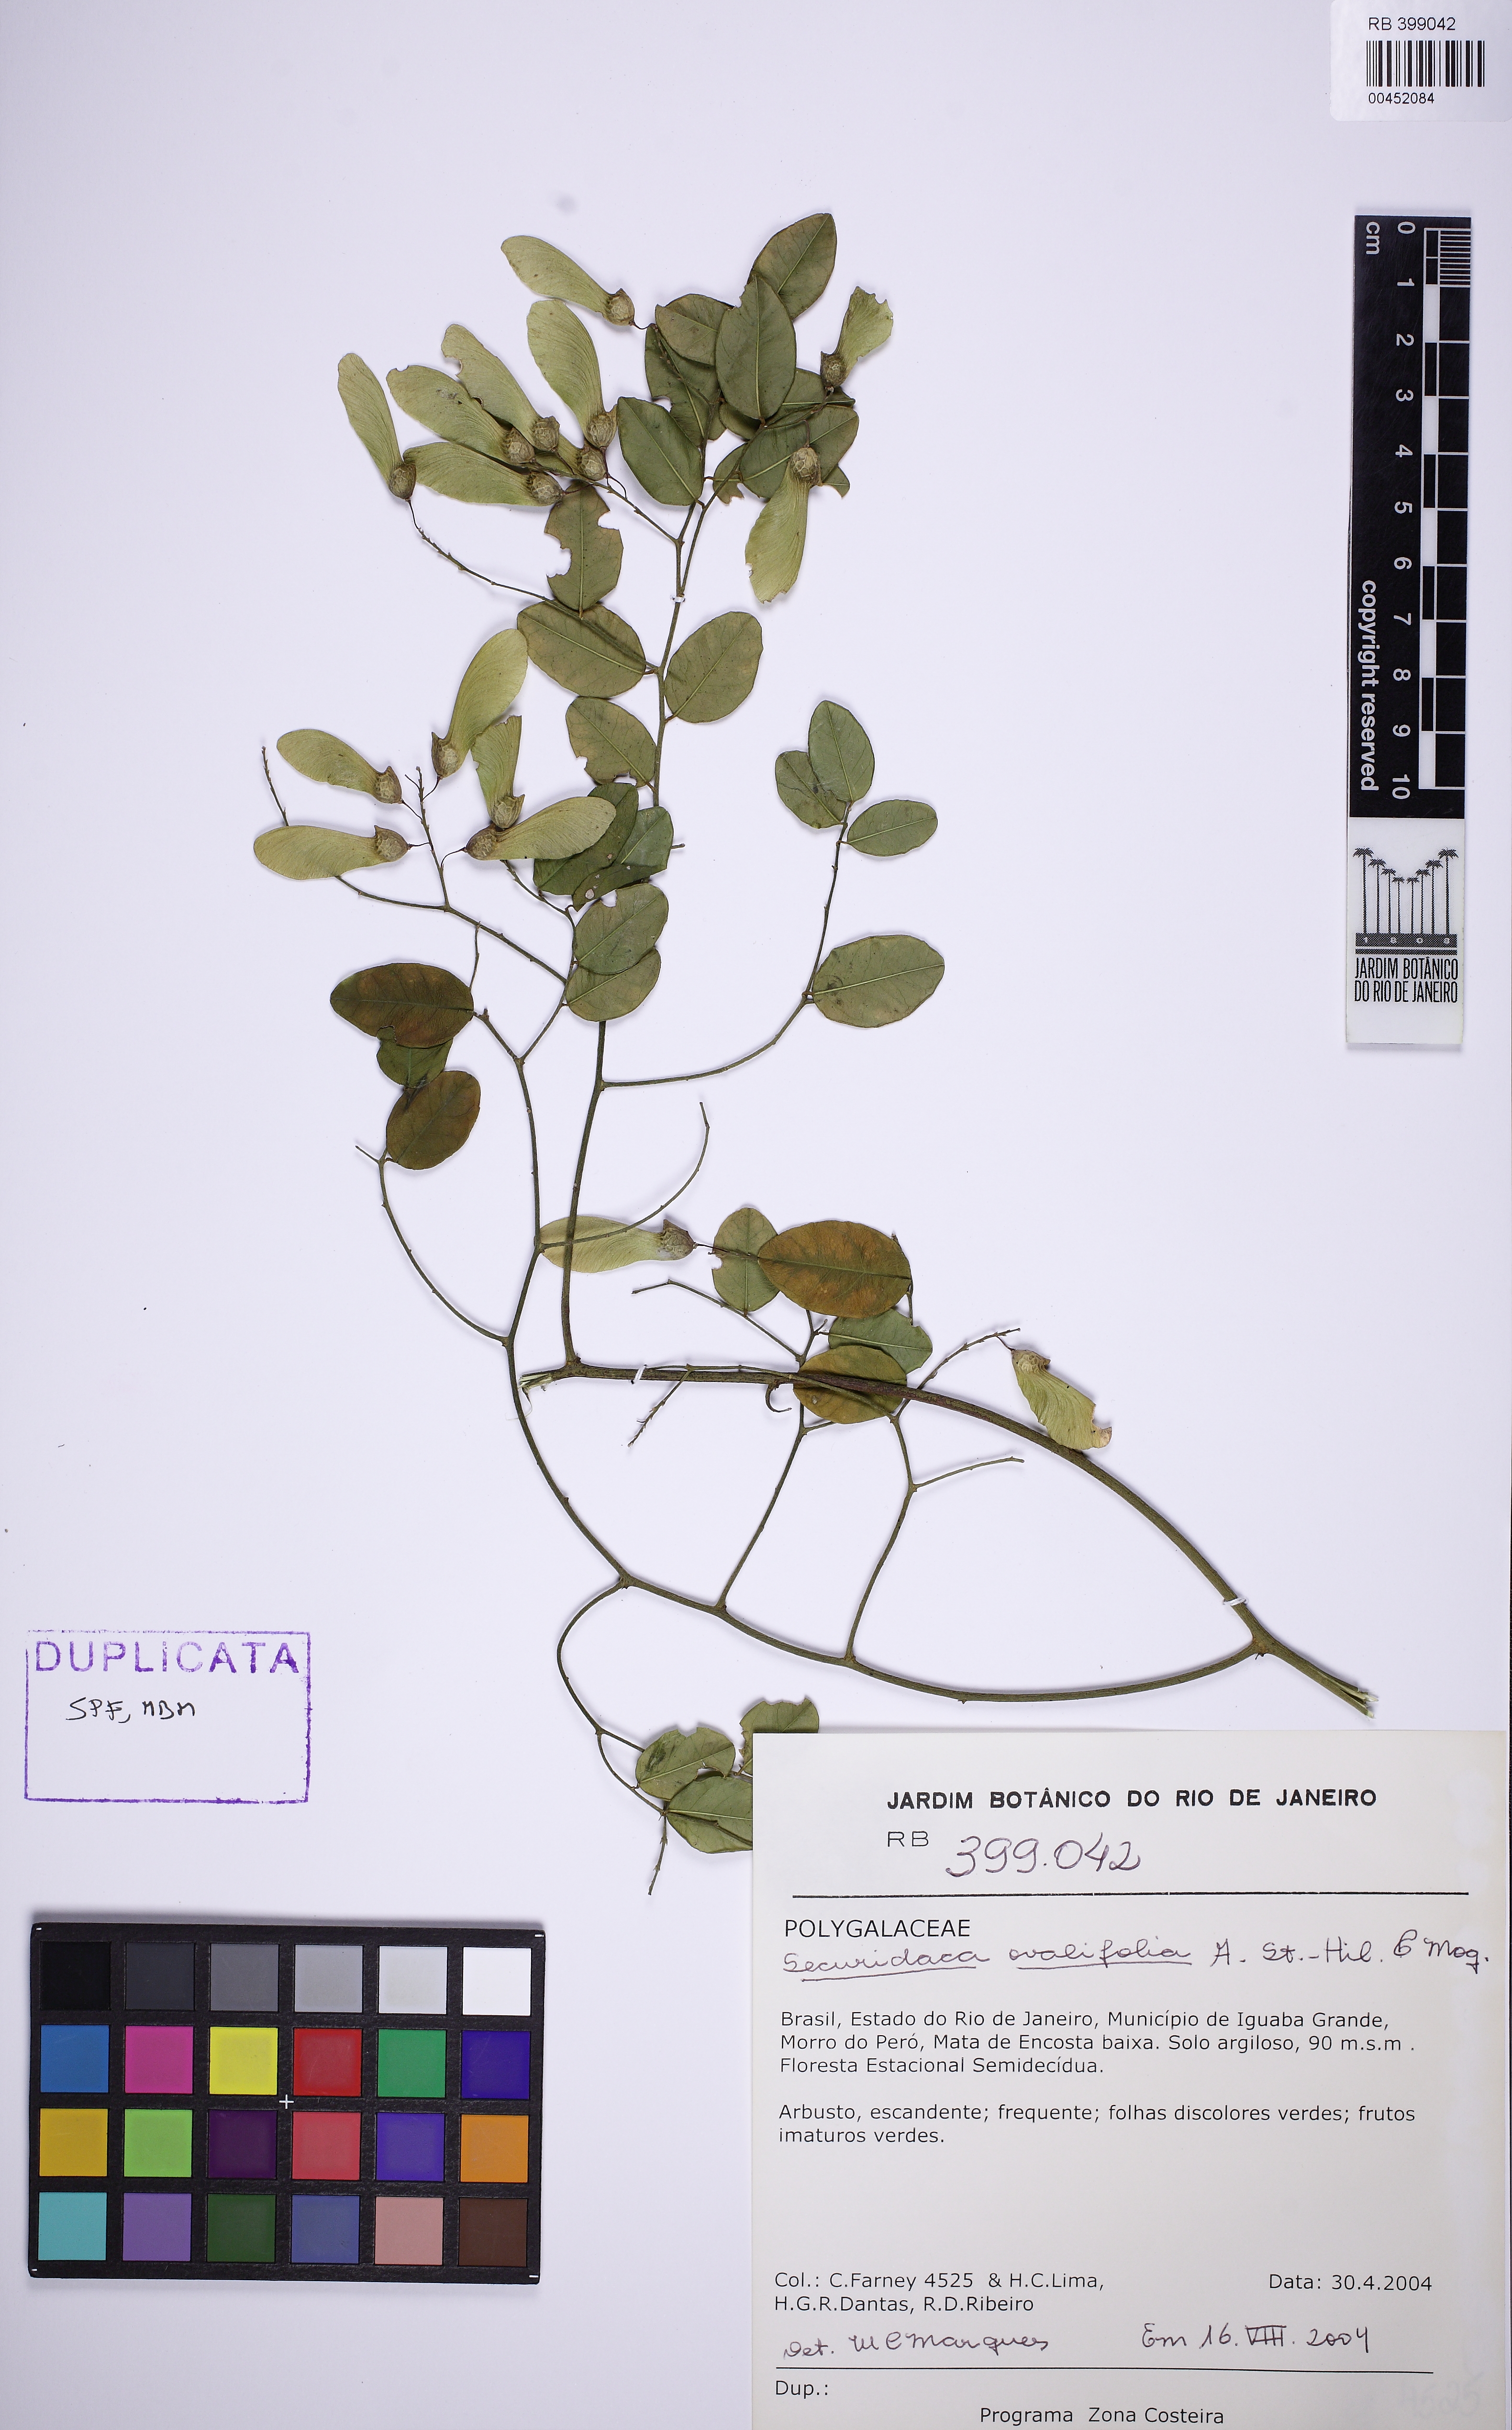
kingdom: Plantae
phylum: Tracheophyta
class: Magnoliopsida
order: Fabales
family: Polygalaceae
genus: Securidaca
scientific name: Securidaca ovalifolia
